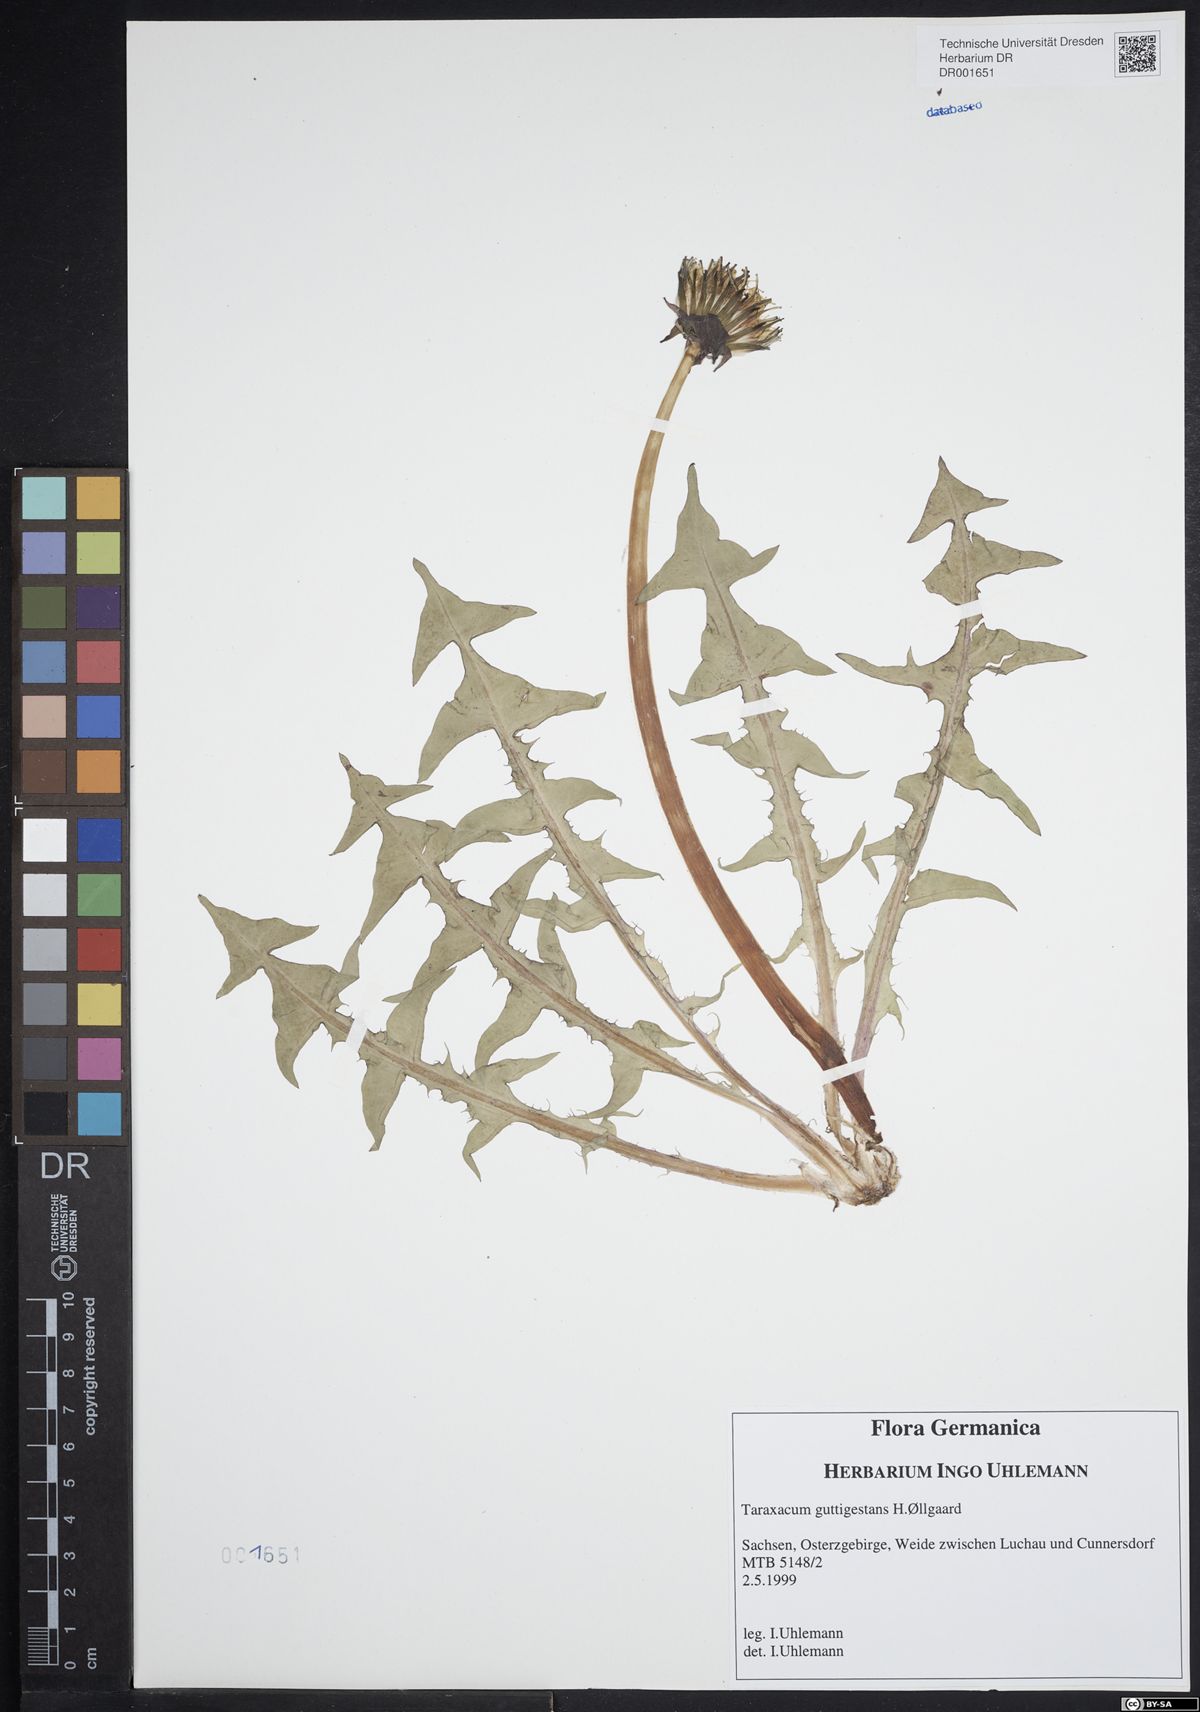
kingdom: Plantae
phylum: Tracheophyta
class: Magnoliopsida
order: Asterales
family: Asteraceae
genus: Taraxacum
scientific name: Taraxacum guttigestans
